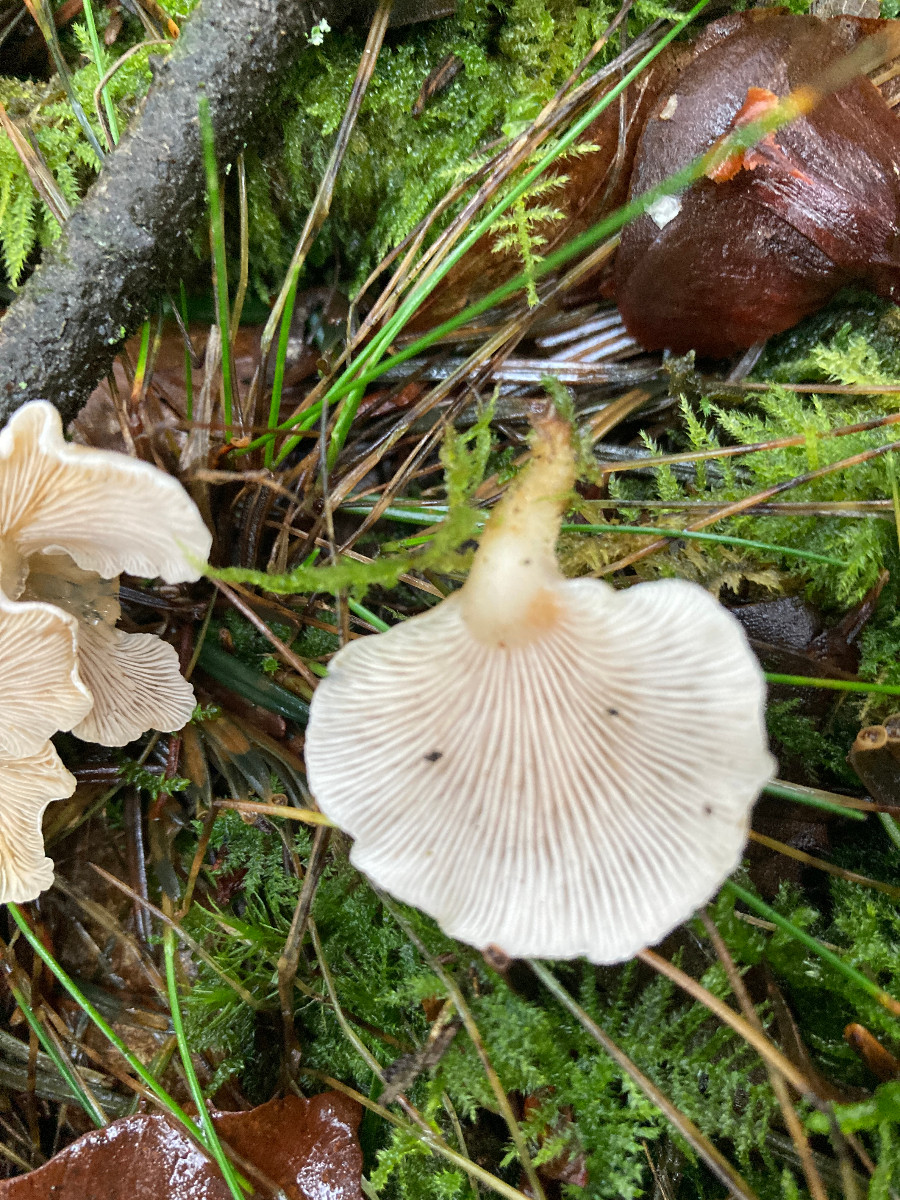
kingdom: Fungi
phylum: Basidiomycota
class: Agaricomycetes
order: Agaricales
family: Mycenaceae
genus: Panellus
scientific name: Panellus mitis
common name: mild epaulethat
